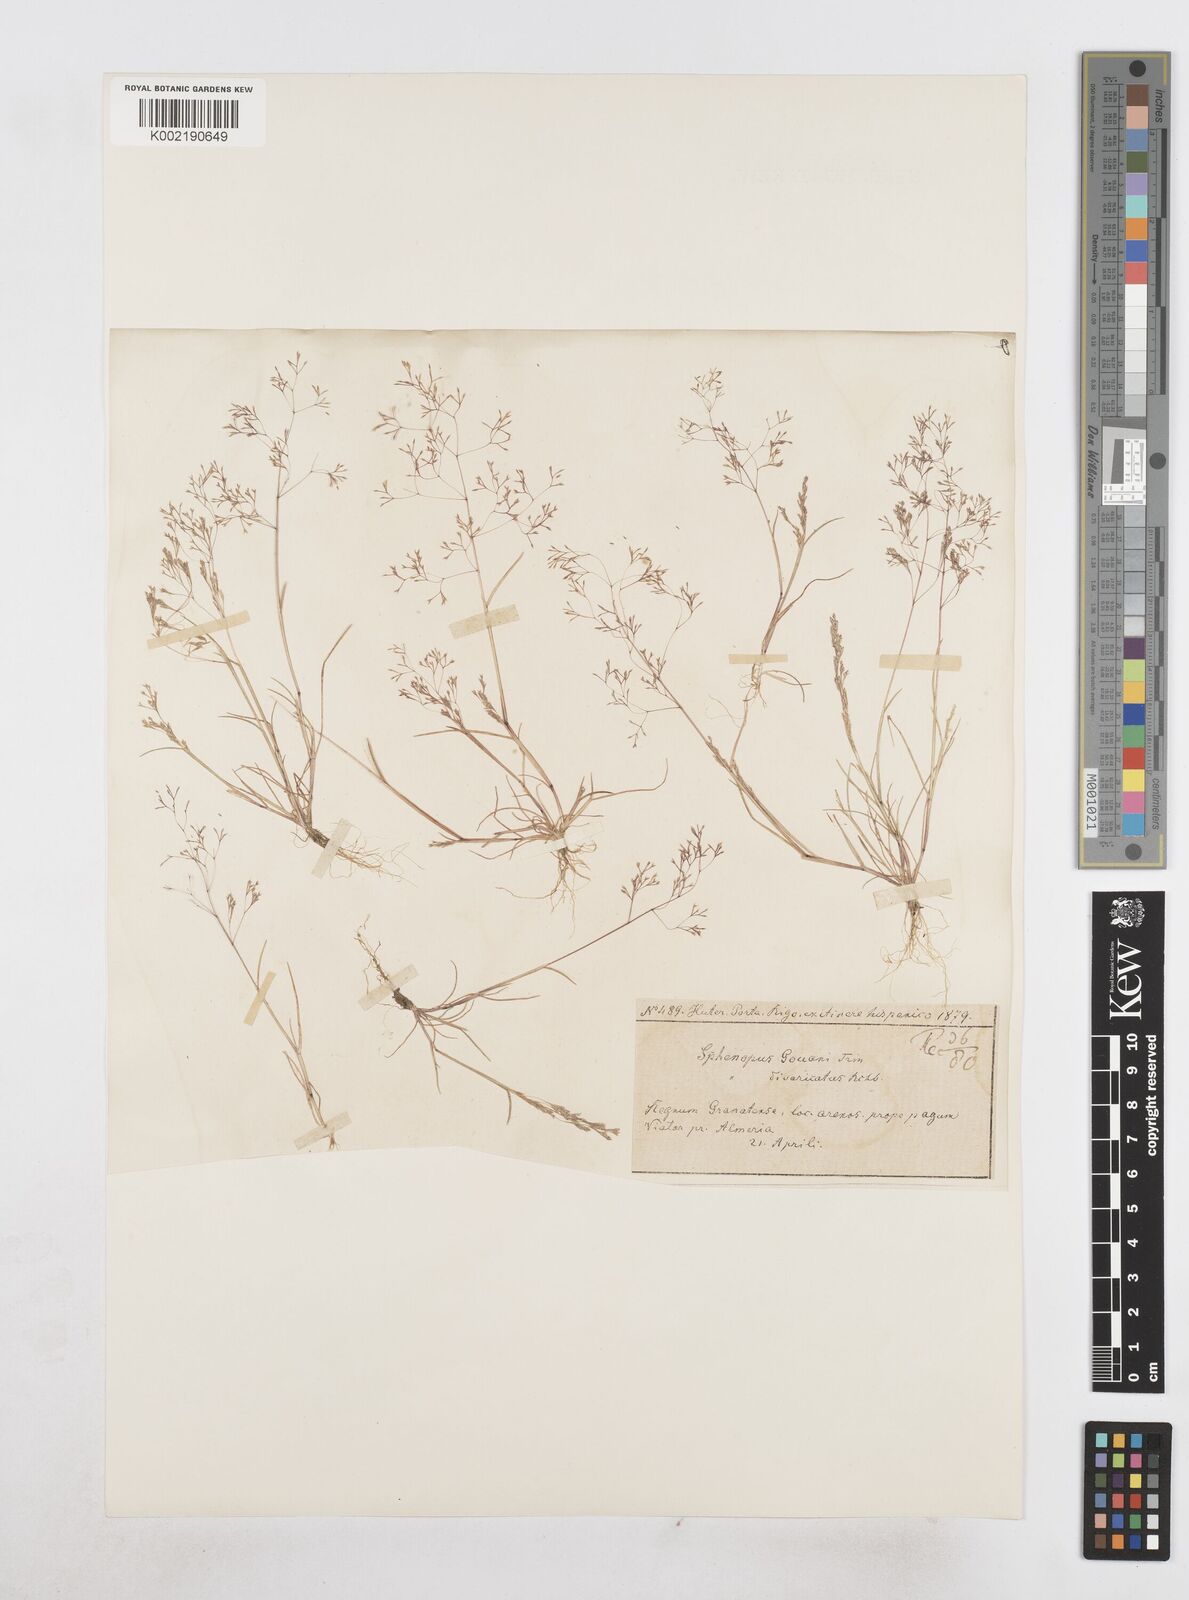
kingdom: Plantae
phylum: Tracheophyta
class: Liliopsida
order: Poales
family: Poaceae
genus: Sphenopus
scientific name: Sphenopus divaricatus
